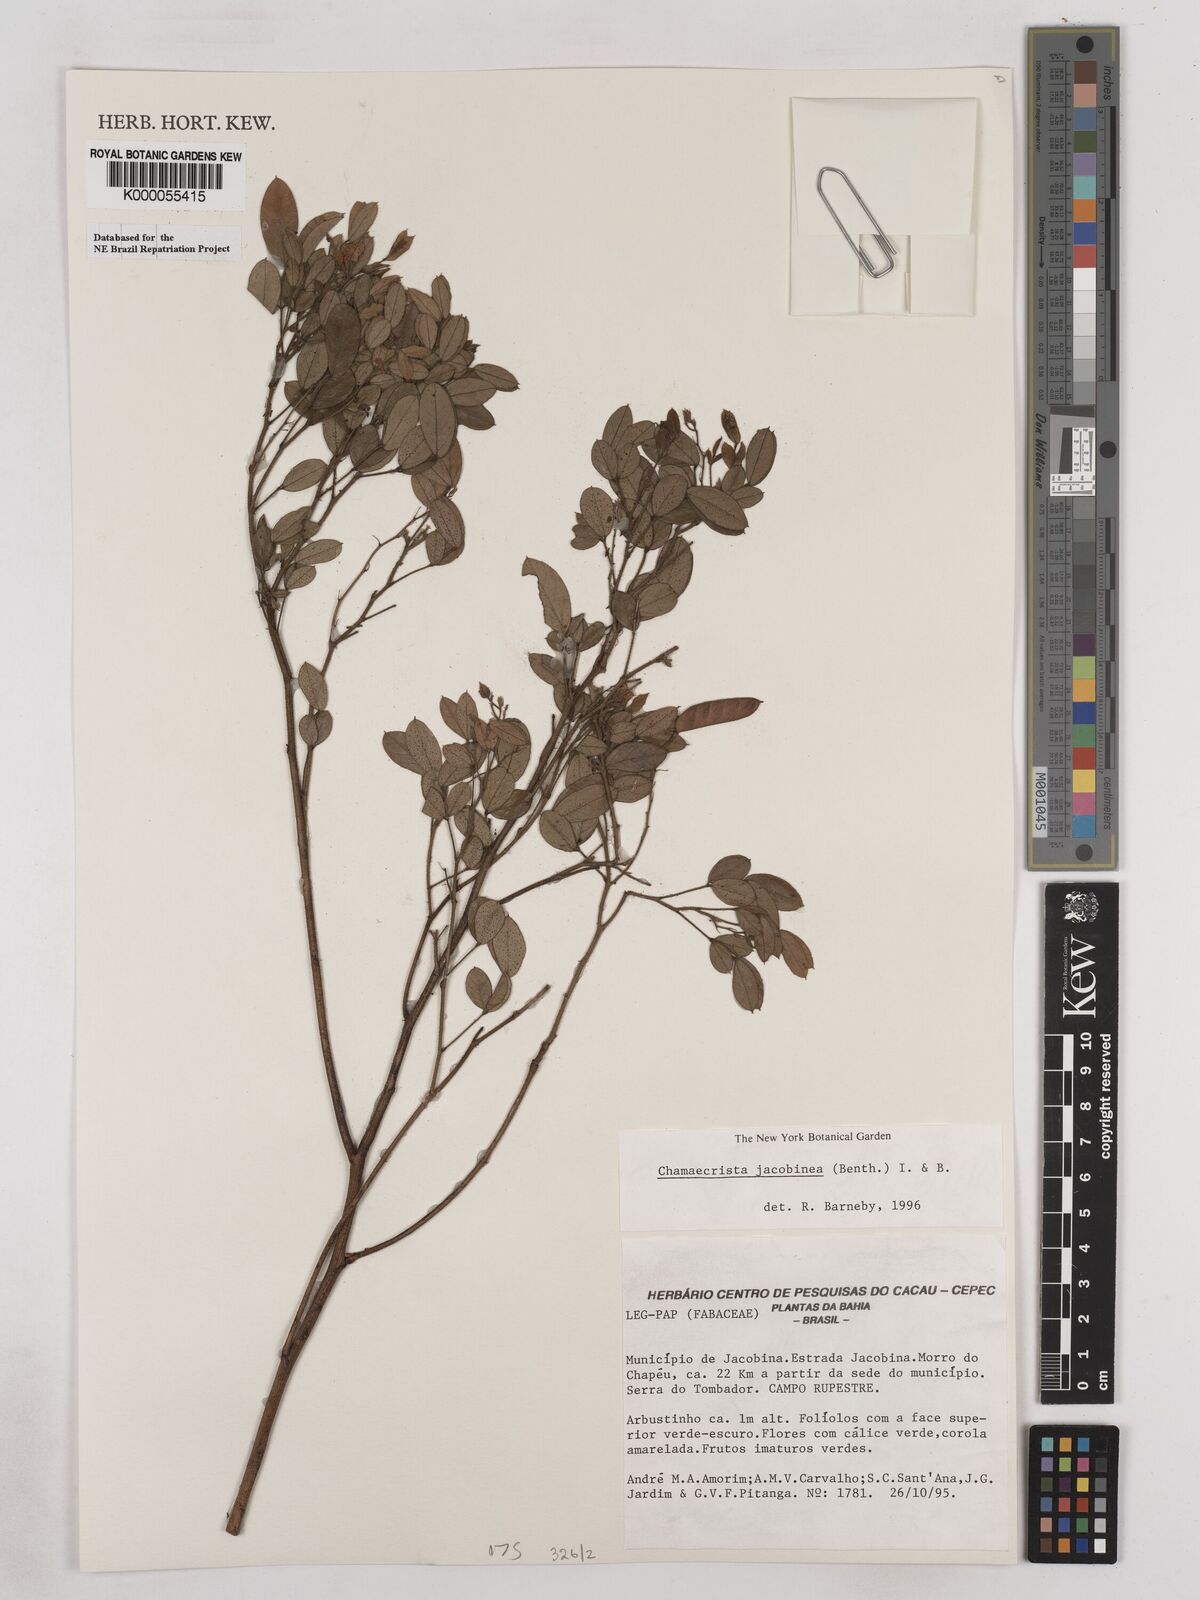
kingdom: Plantae
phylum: Tracheophyta
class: Magnoliopsida
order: Fabales
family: Fabaceae
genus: Chamaecrista
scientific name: Chamaecrista jacobinea
